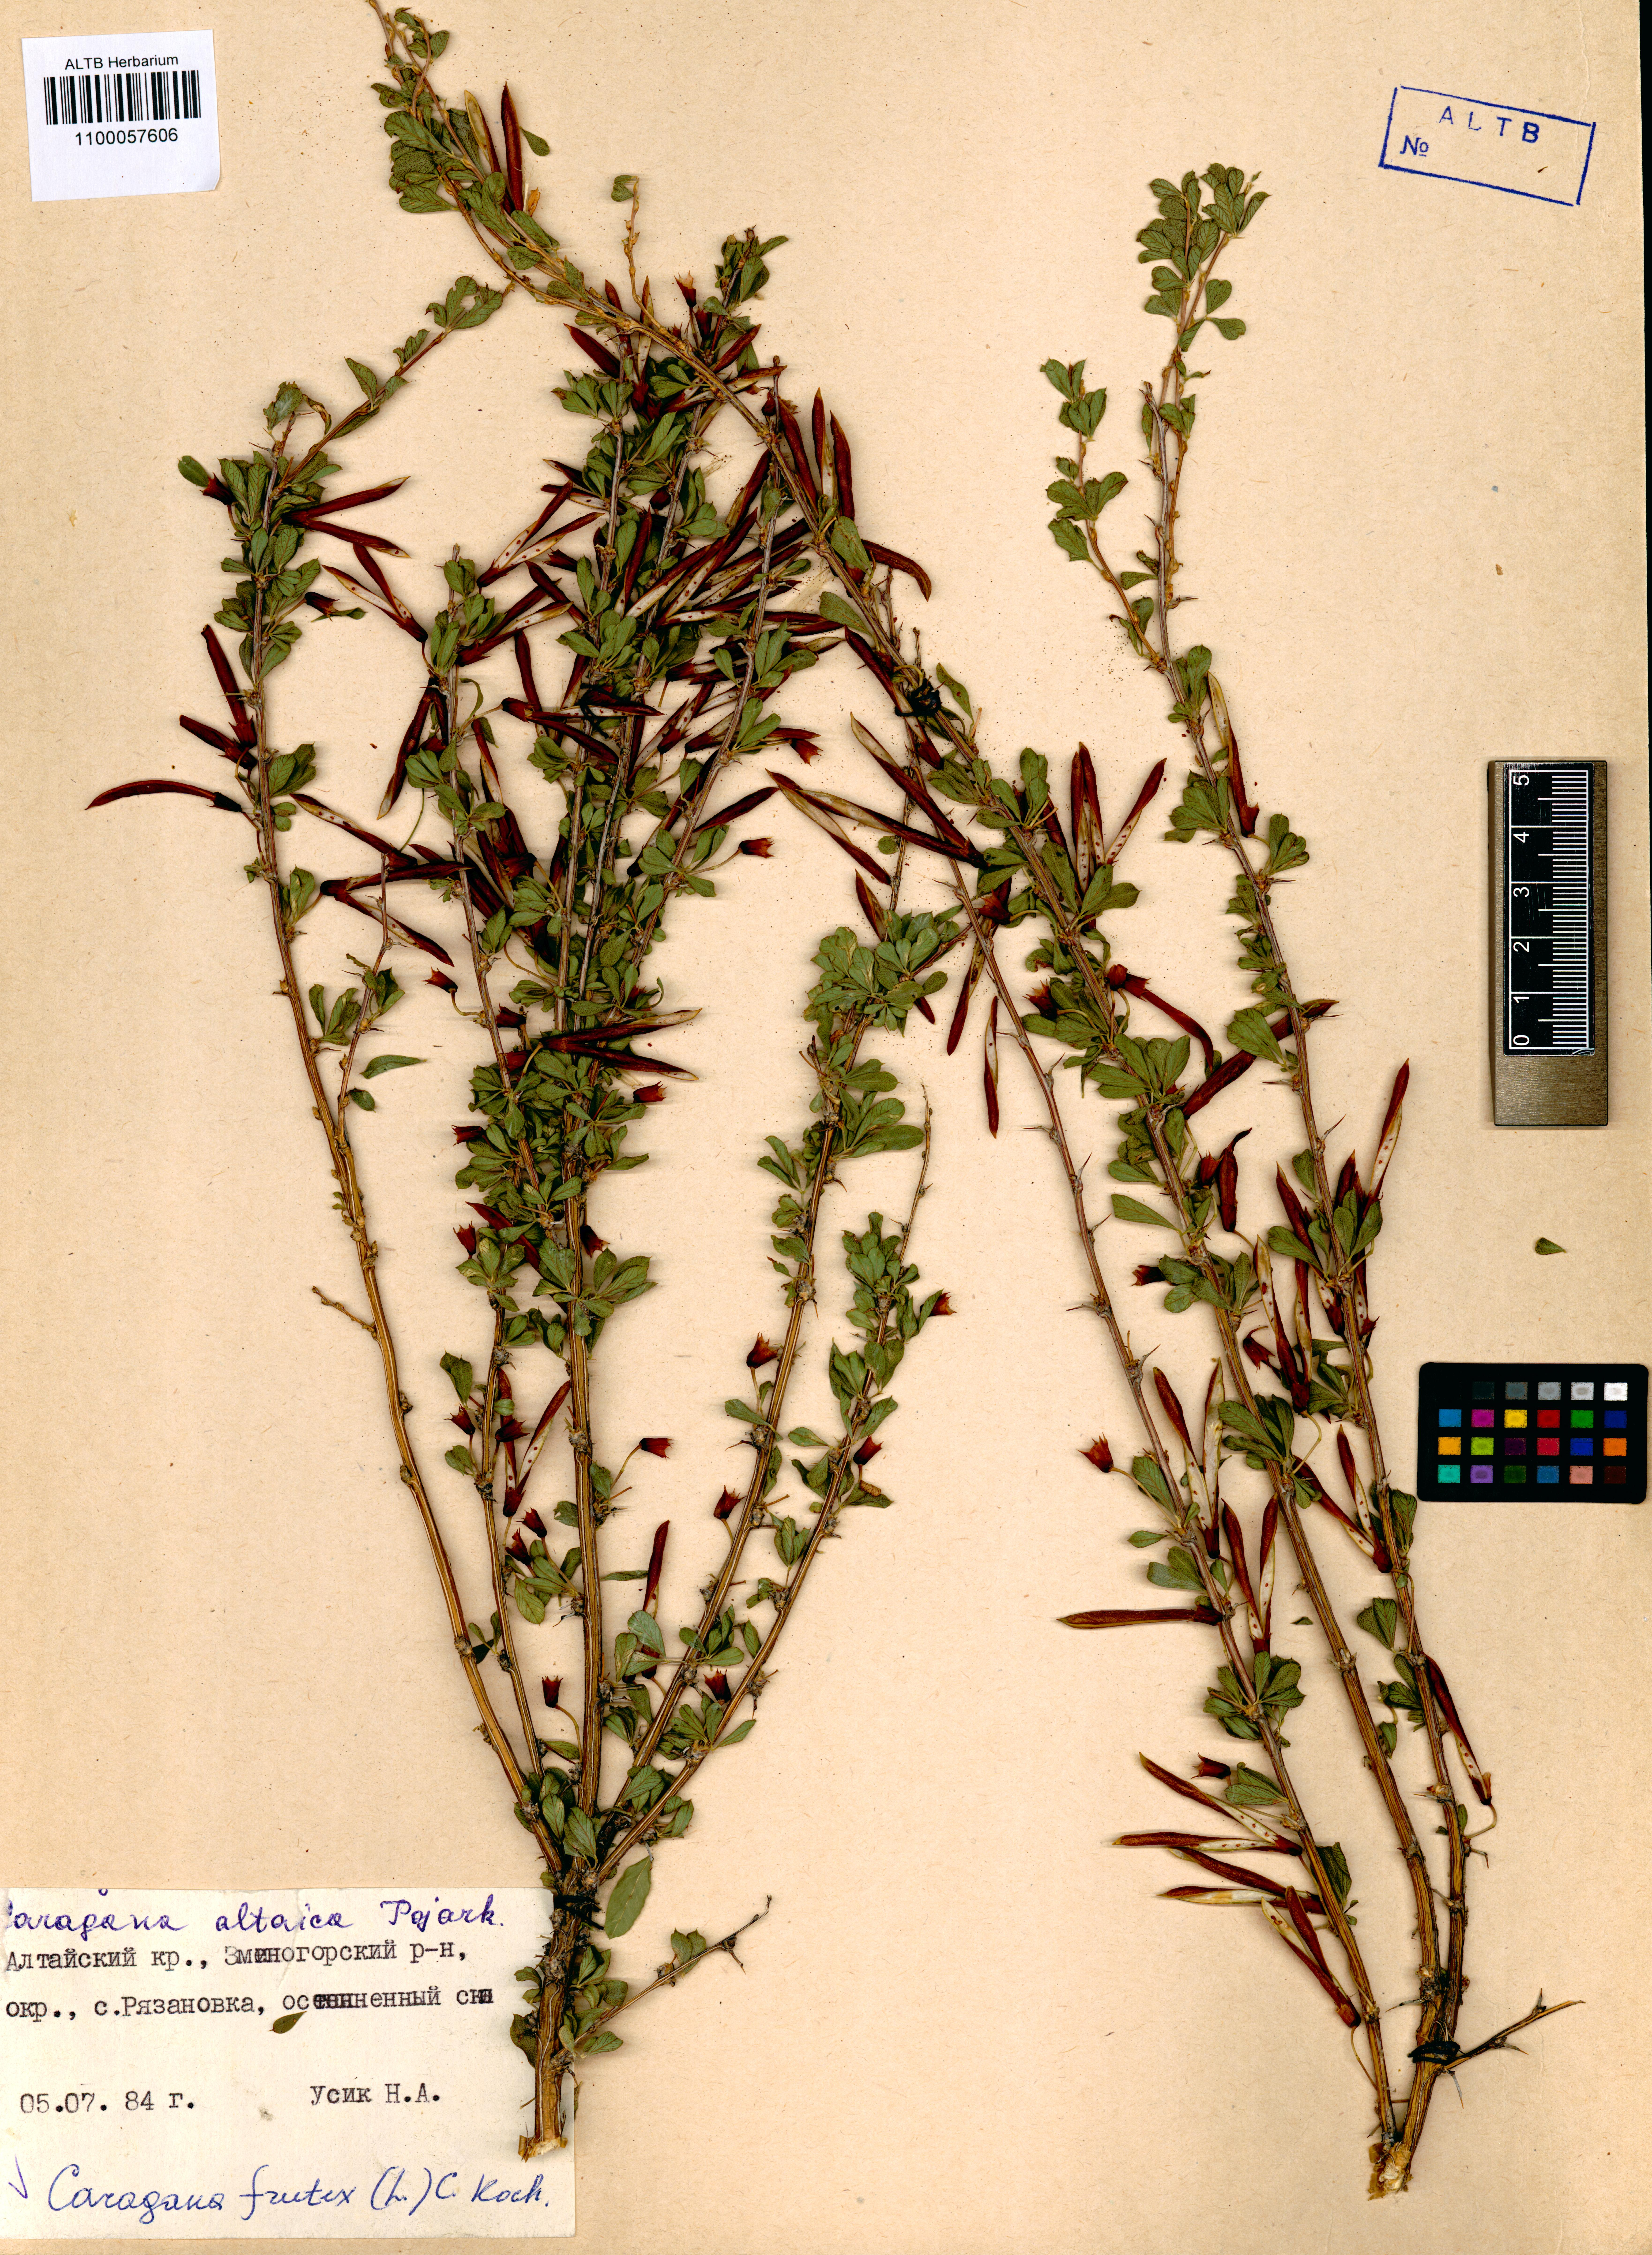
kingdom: Plantae
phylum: Tracheophyta
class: Magnoliopsida
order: Fabales
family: Fabaceae
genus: Caragana
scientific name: Caragana frutex
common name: Russian peashrub
